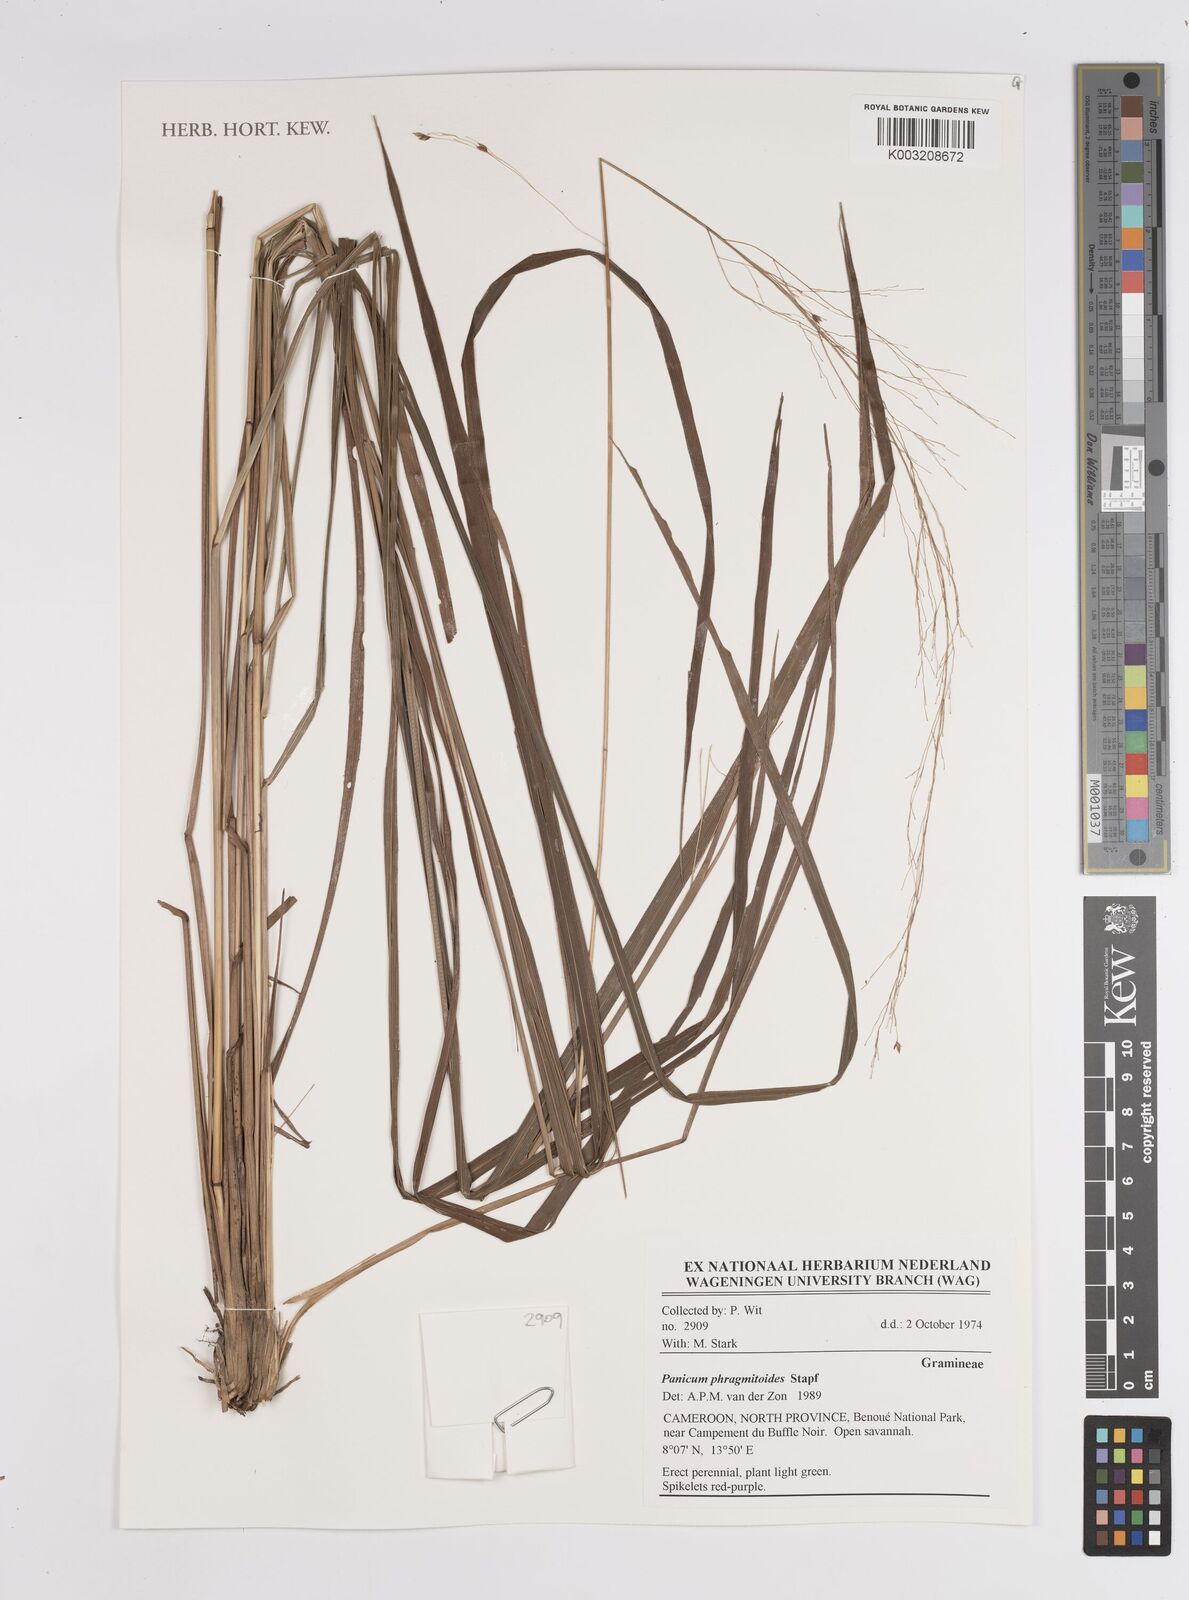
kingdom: Plantae
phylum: Tracheophyta
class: Liliopsida
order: Poales
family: Poaceae
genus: Panicum
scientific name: Panicum phragmitoides
